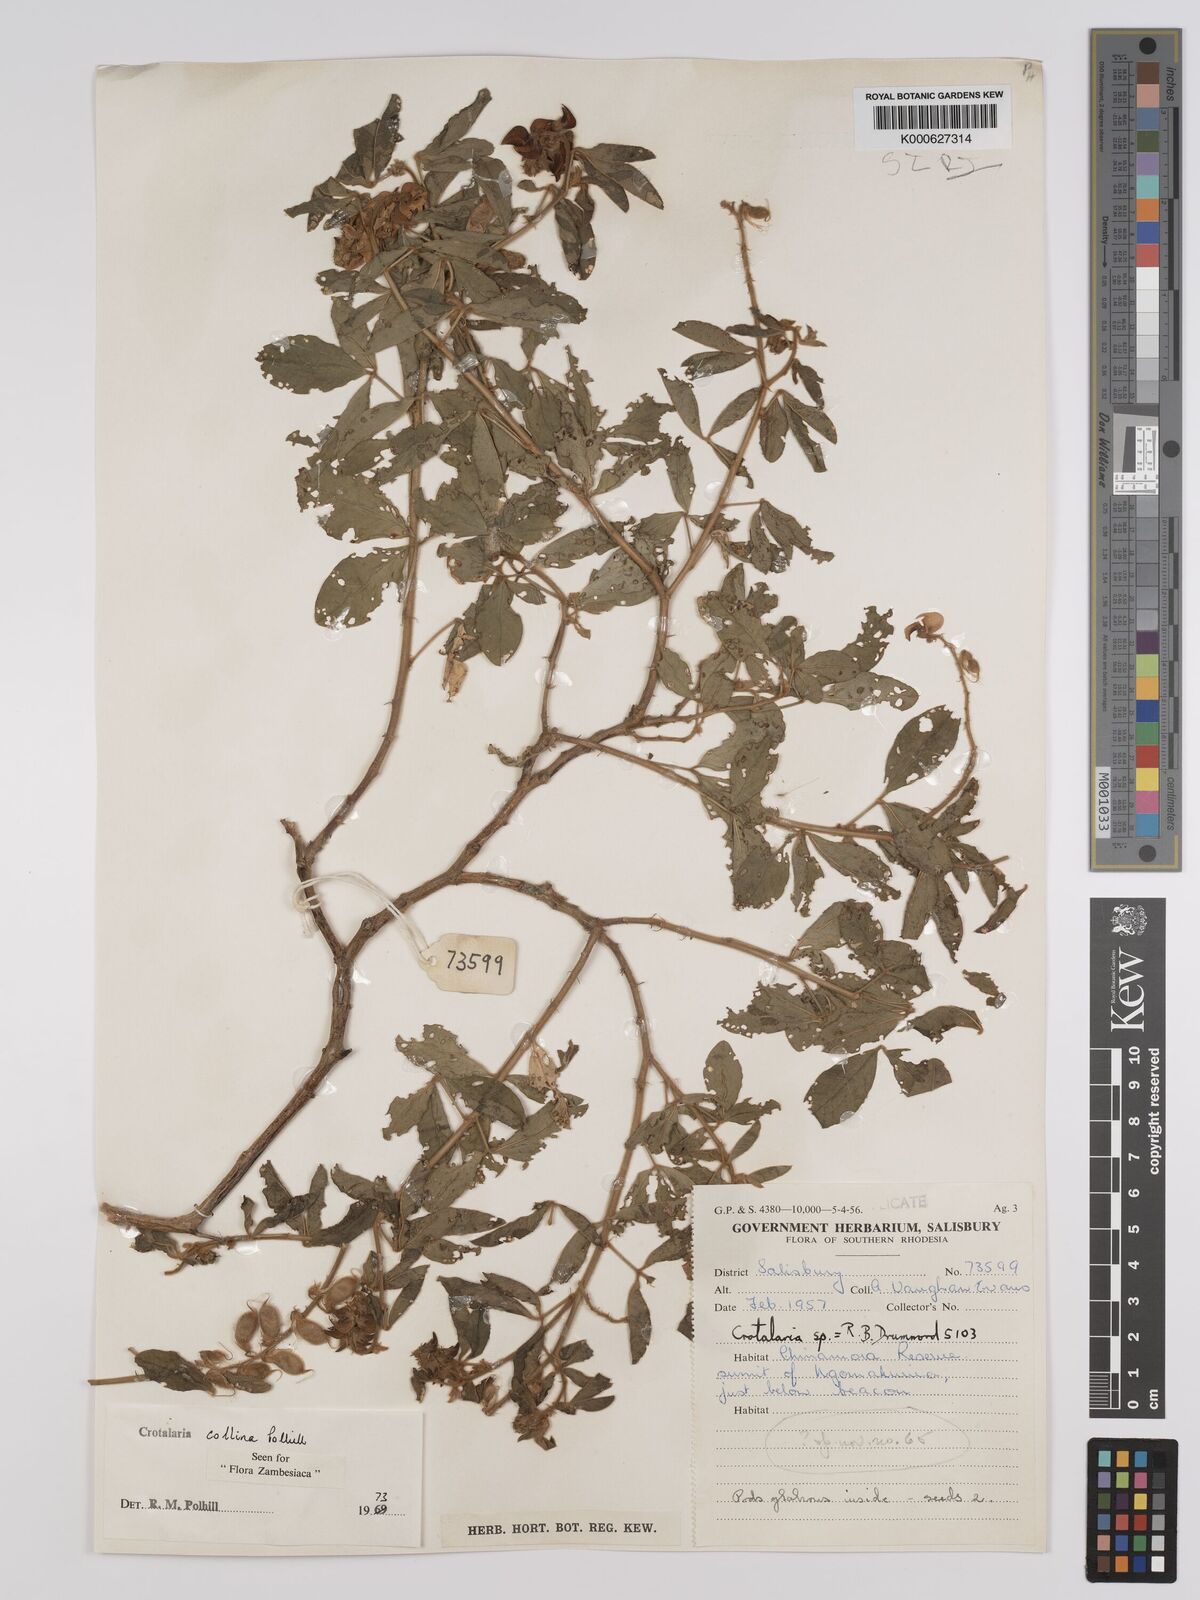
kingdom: Plantae
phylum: Tracheophyta
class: Magnoliopsida
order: Fabales
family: Fabaceae
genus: Crotalaria
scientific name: Crotalaria collina
